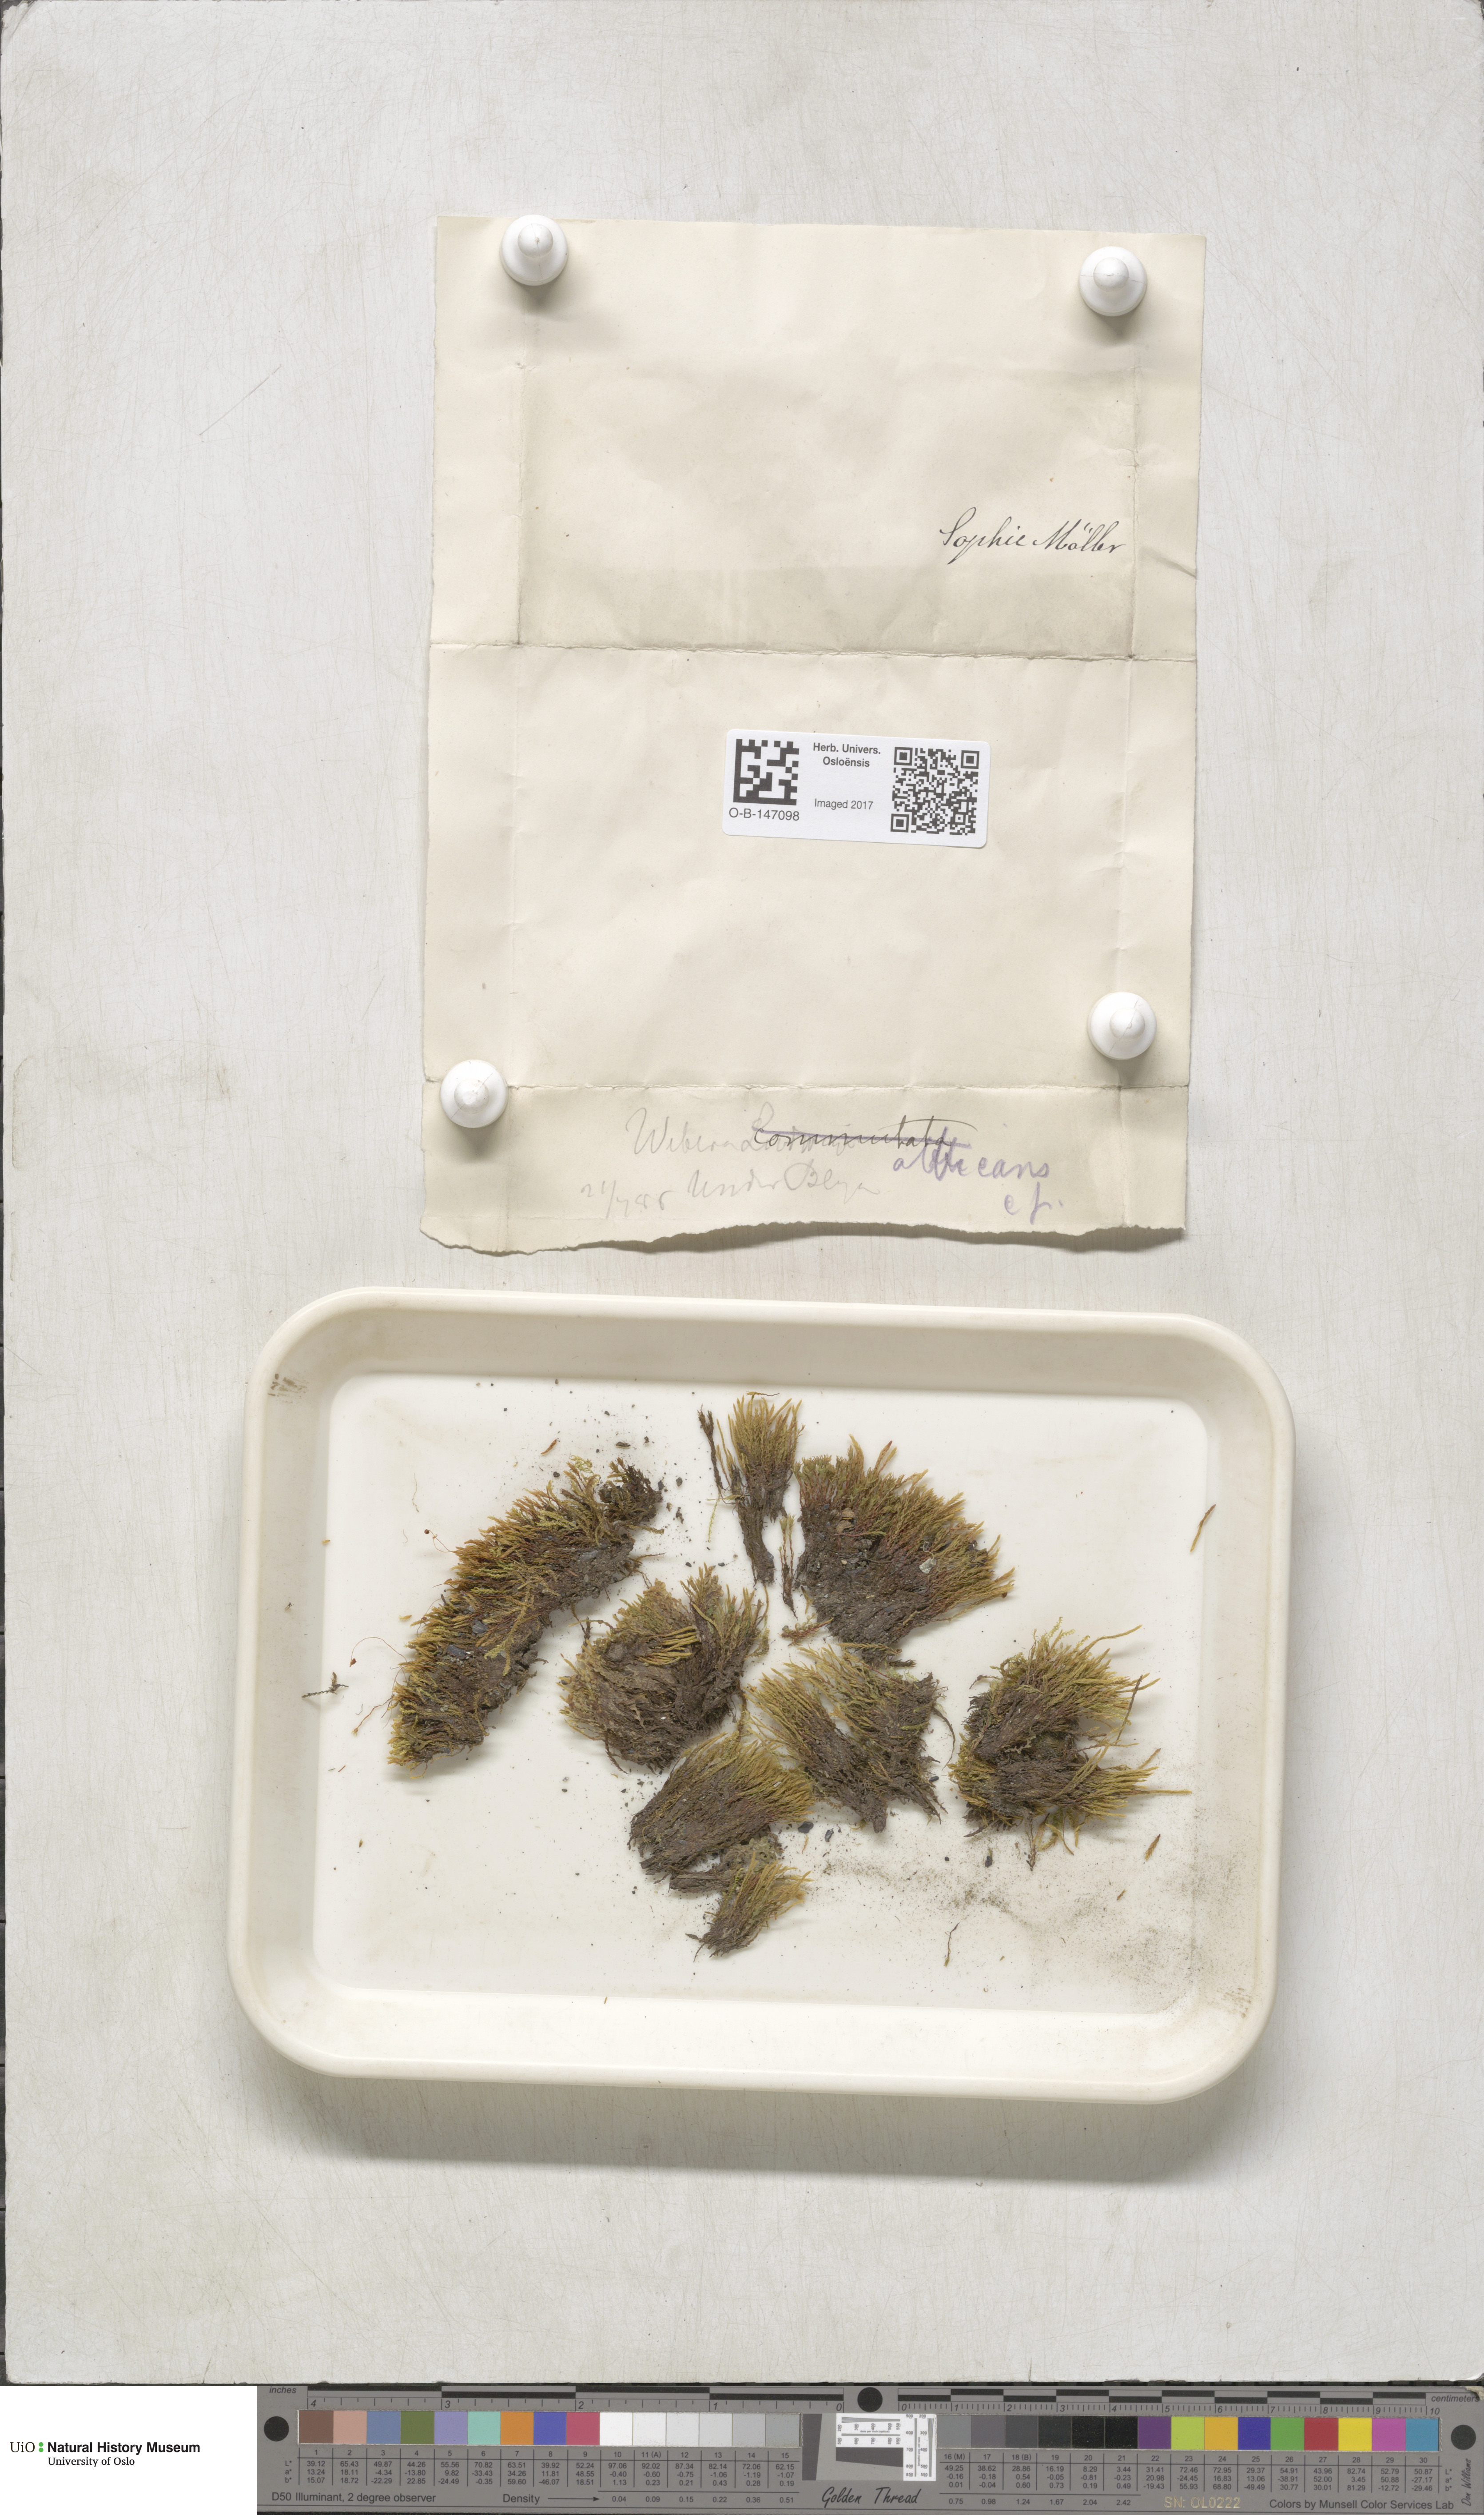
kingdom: Plantae
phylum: Bryophyta
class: Bryopsida
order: Bryales
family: Mniaceae
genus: Pohlia
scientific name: Pohlia wahlenbergii
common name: Wahlenberg's nodding moss
